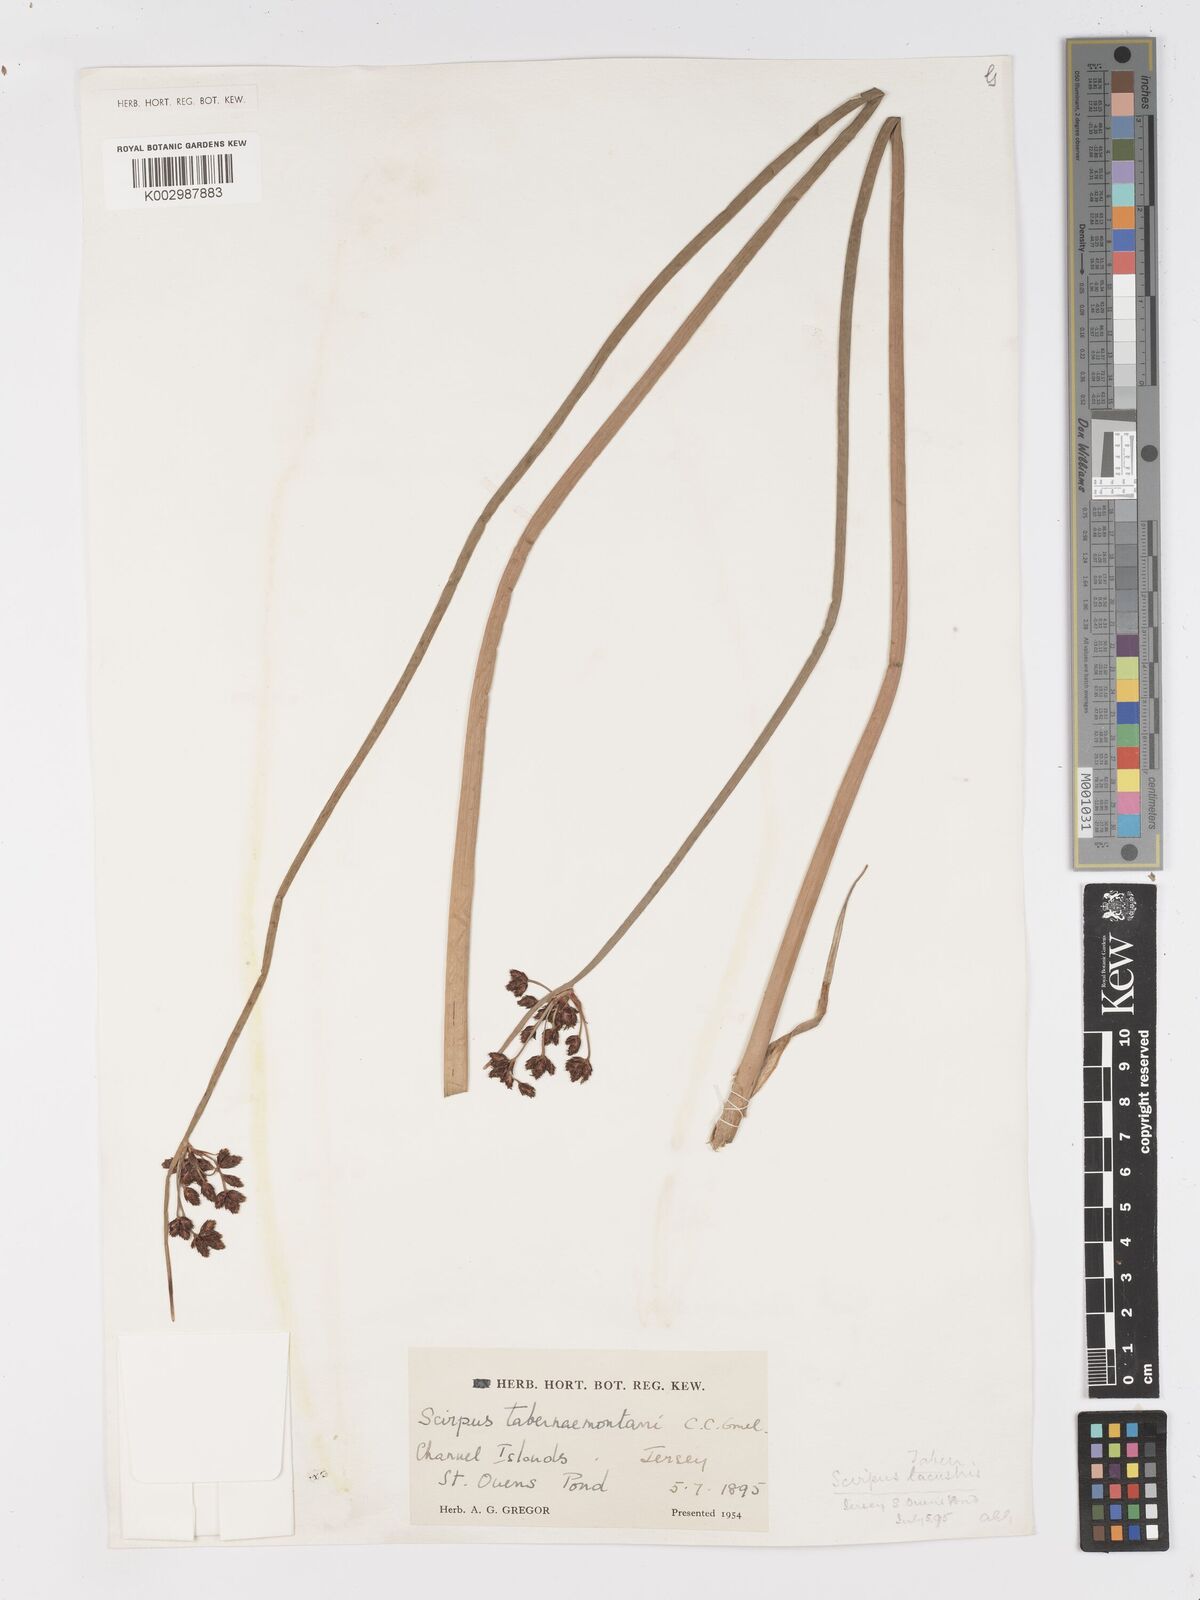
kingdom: Plantae
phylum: Tracheophyta
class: Liliopsida
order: Poales
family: Cyperaceae
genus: Schoenoplectus
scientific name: Schoenoplectus tabernaemontani
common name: Grey club-rush
